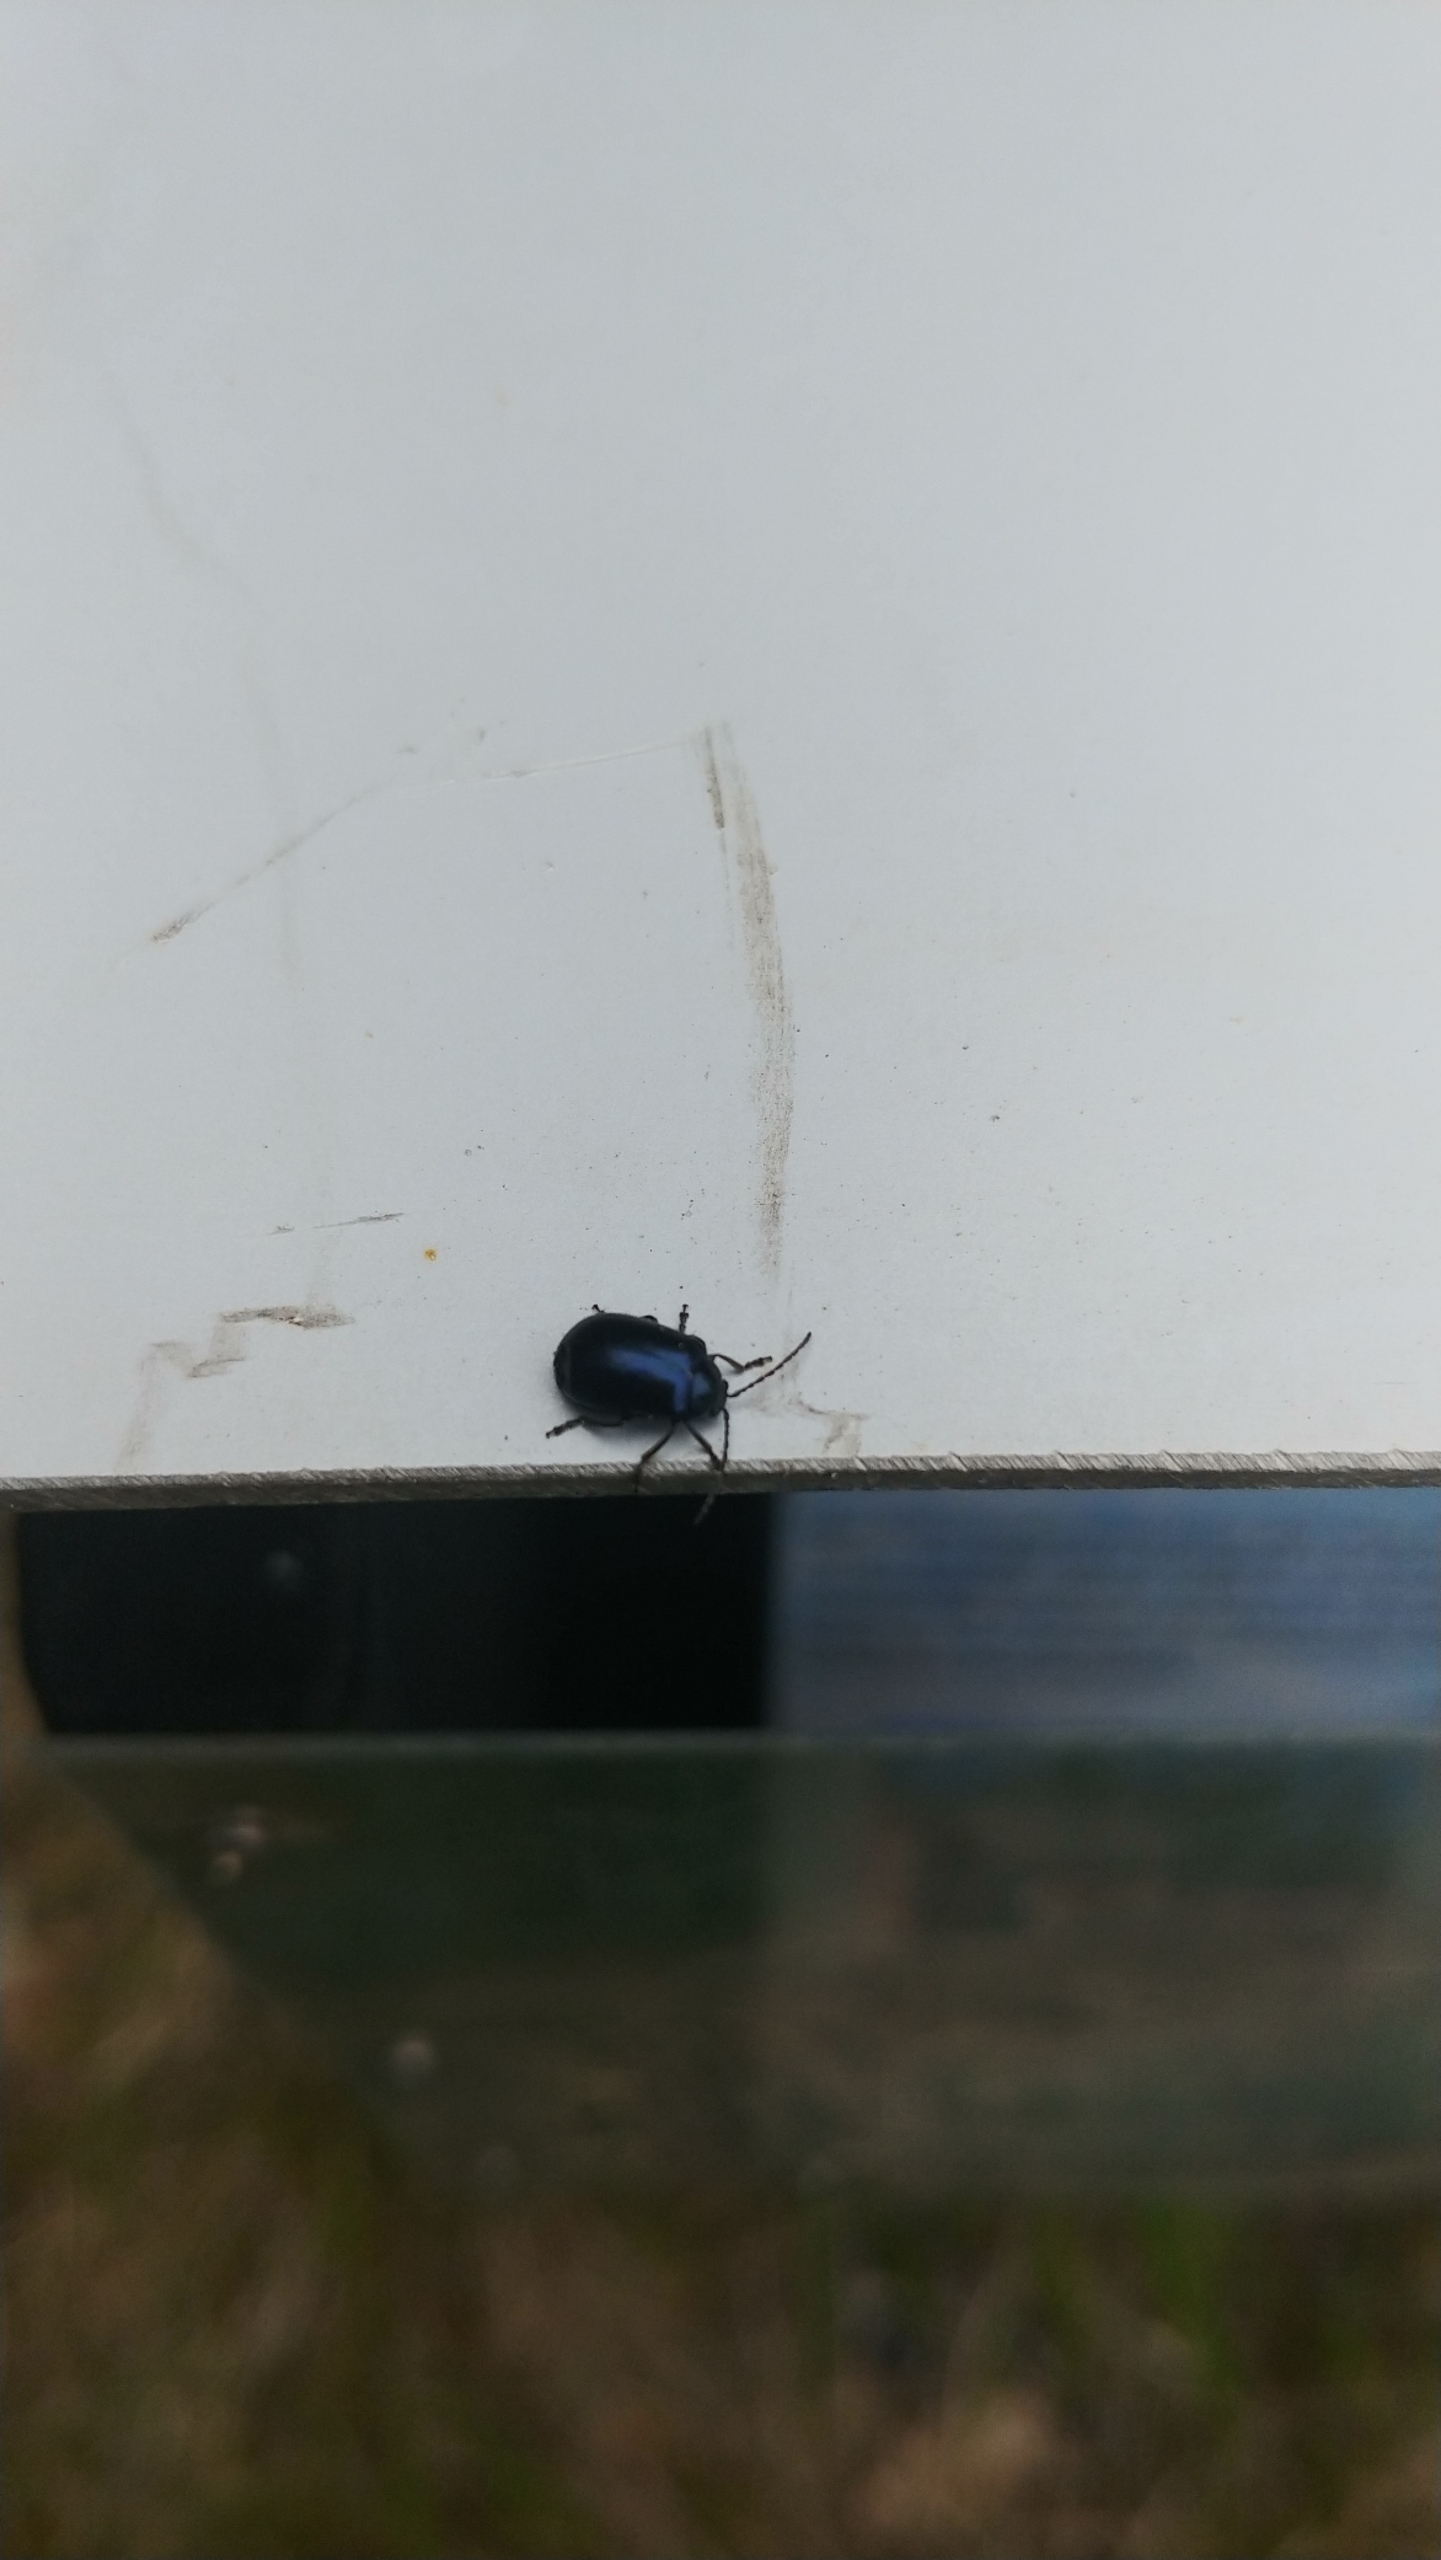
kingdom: Animalia
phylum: Arthropoda
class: Insecta
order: Coleoptera
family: Chrysomelidae
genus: Agelastica
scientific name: Agelastica alni
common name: Ellebladbille
